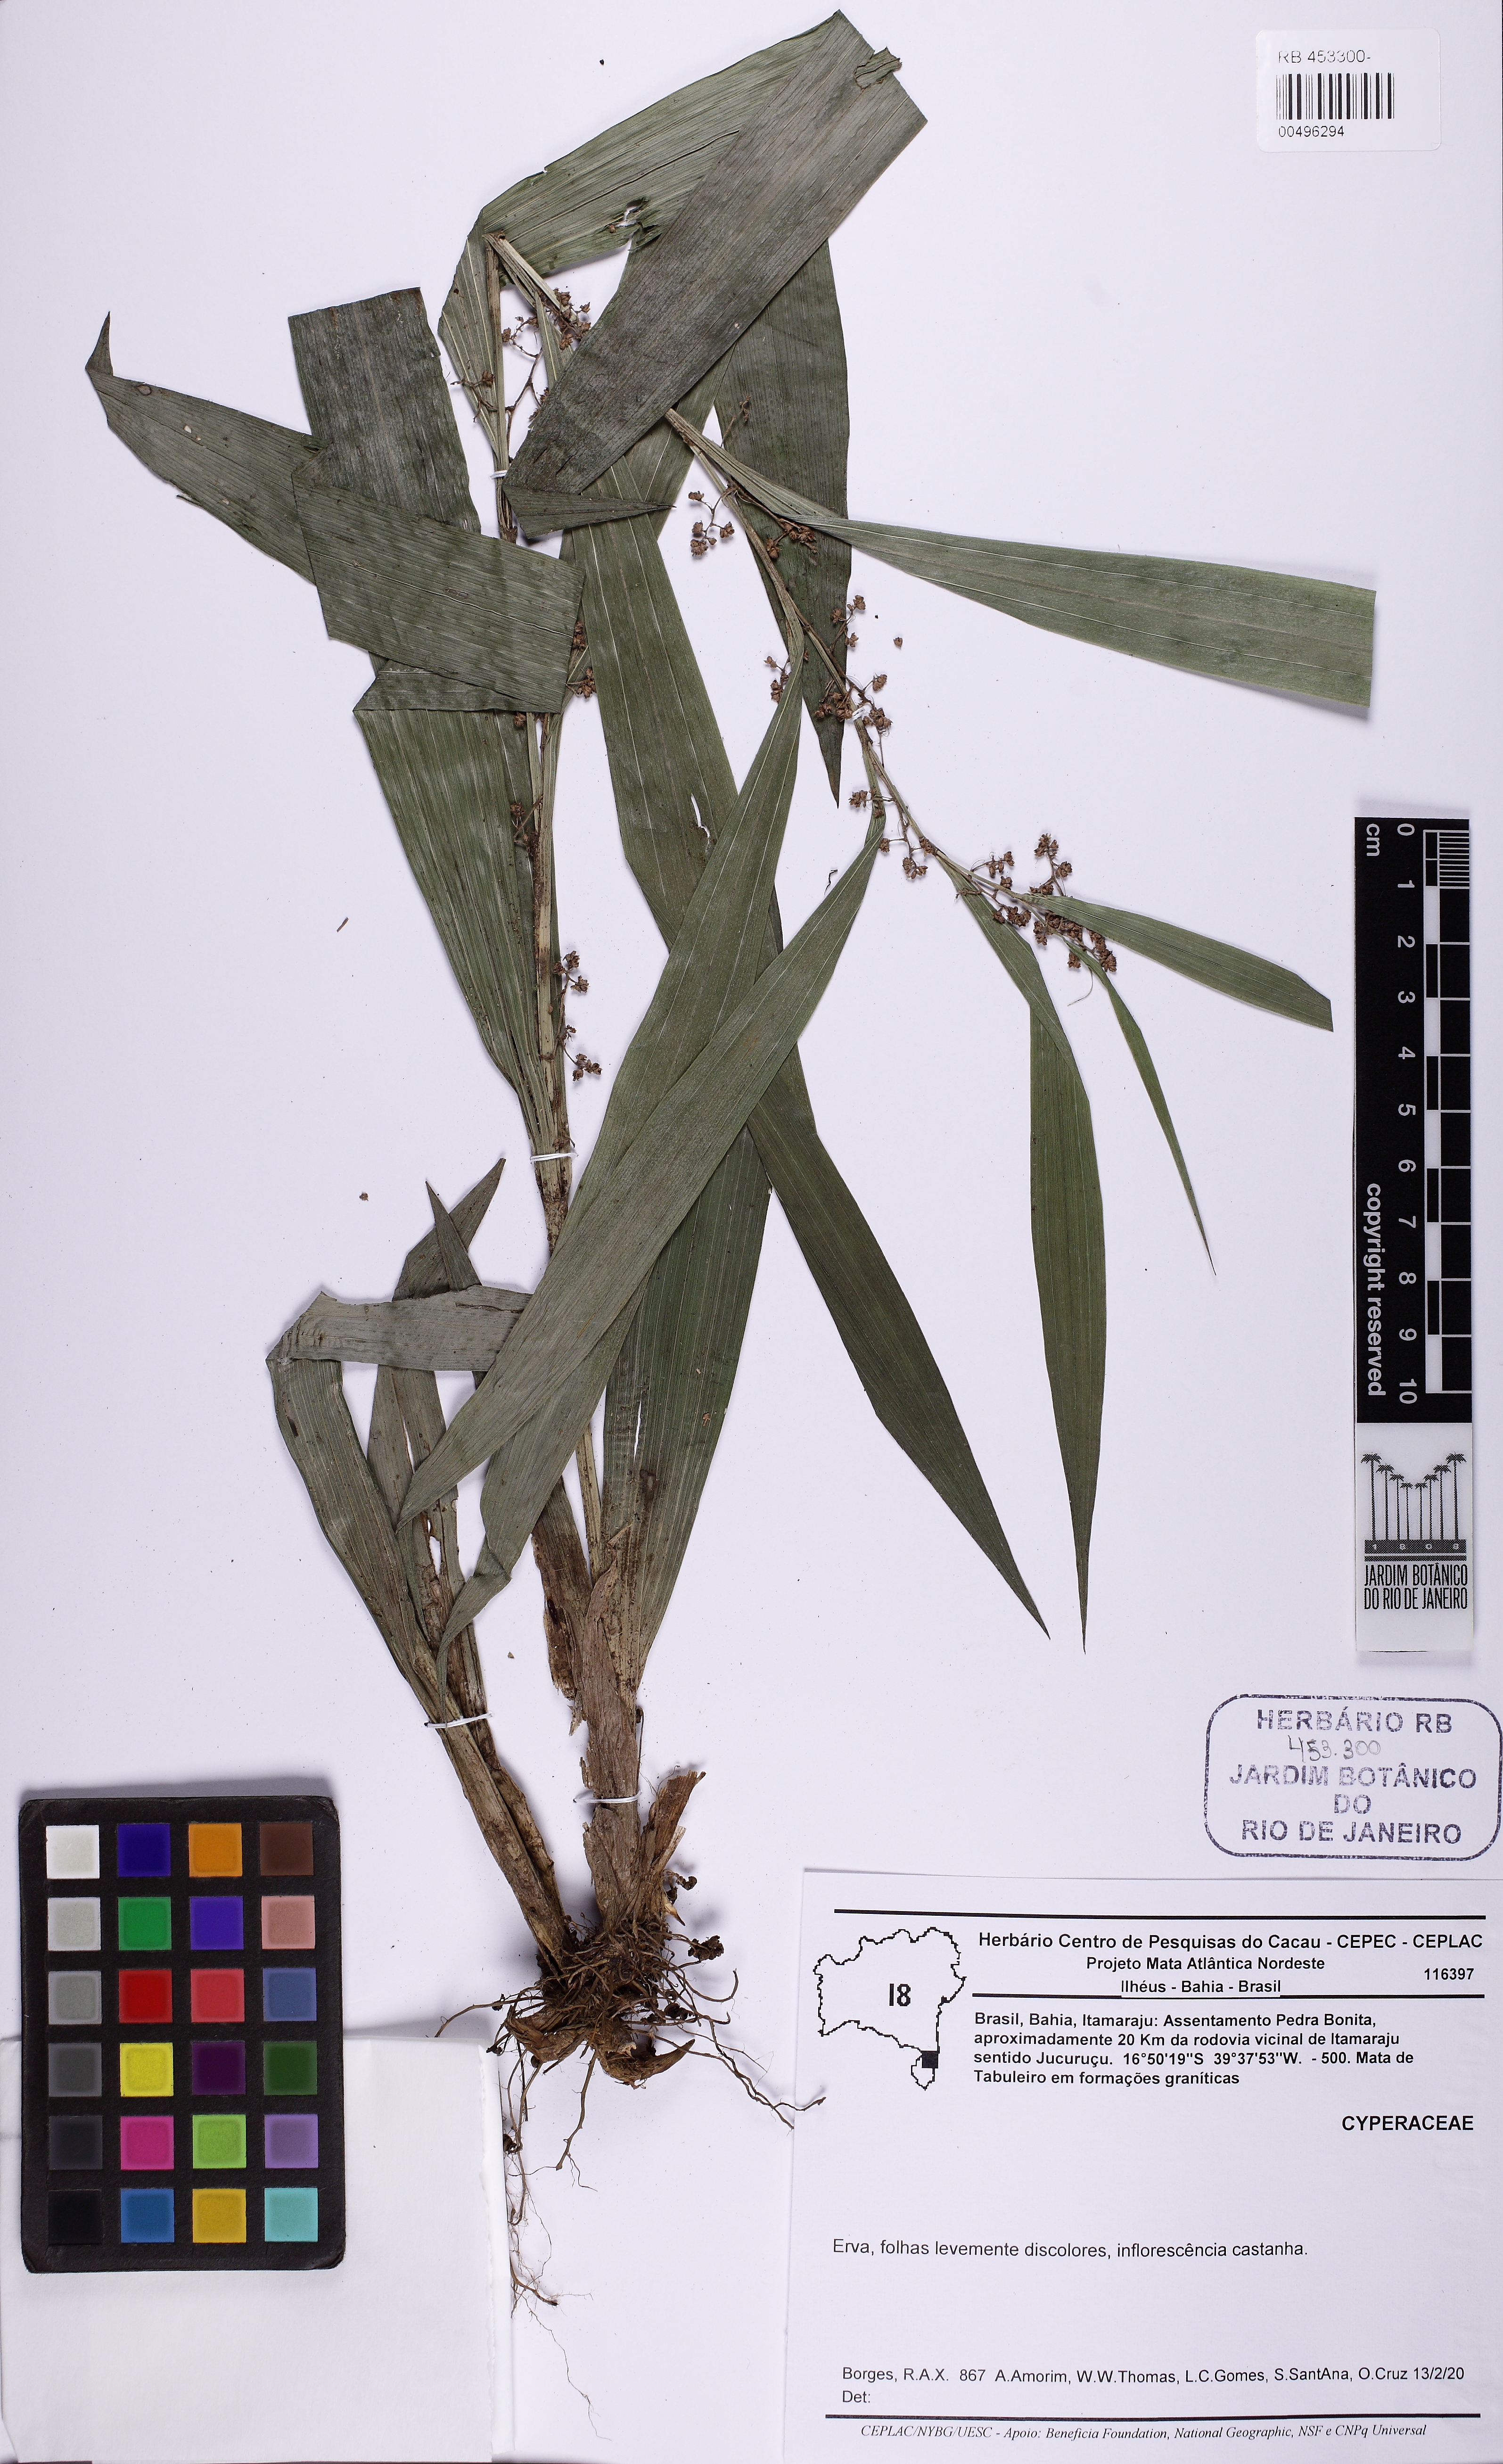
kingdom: Plantae
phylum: Tracheophyta
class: Liliopsida
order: Poales
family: Cyperaceae
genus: Rhynchospora
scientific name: Rhynchospora
